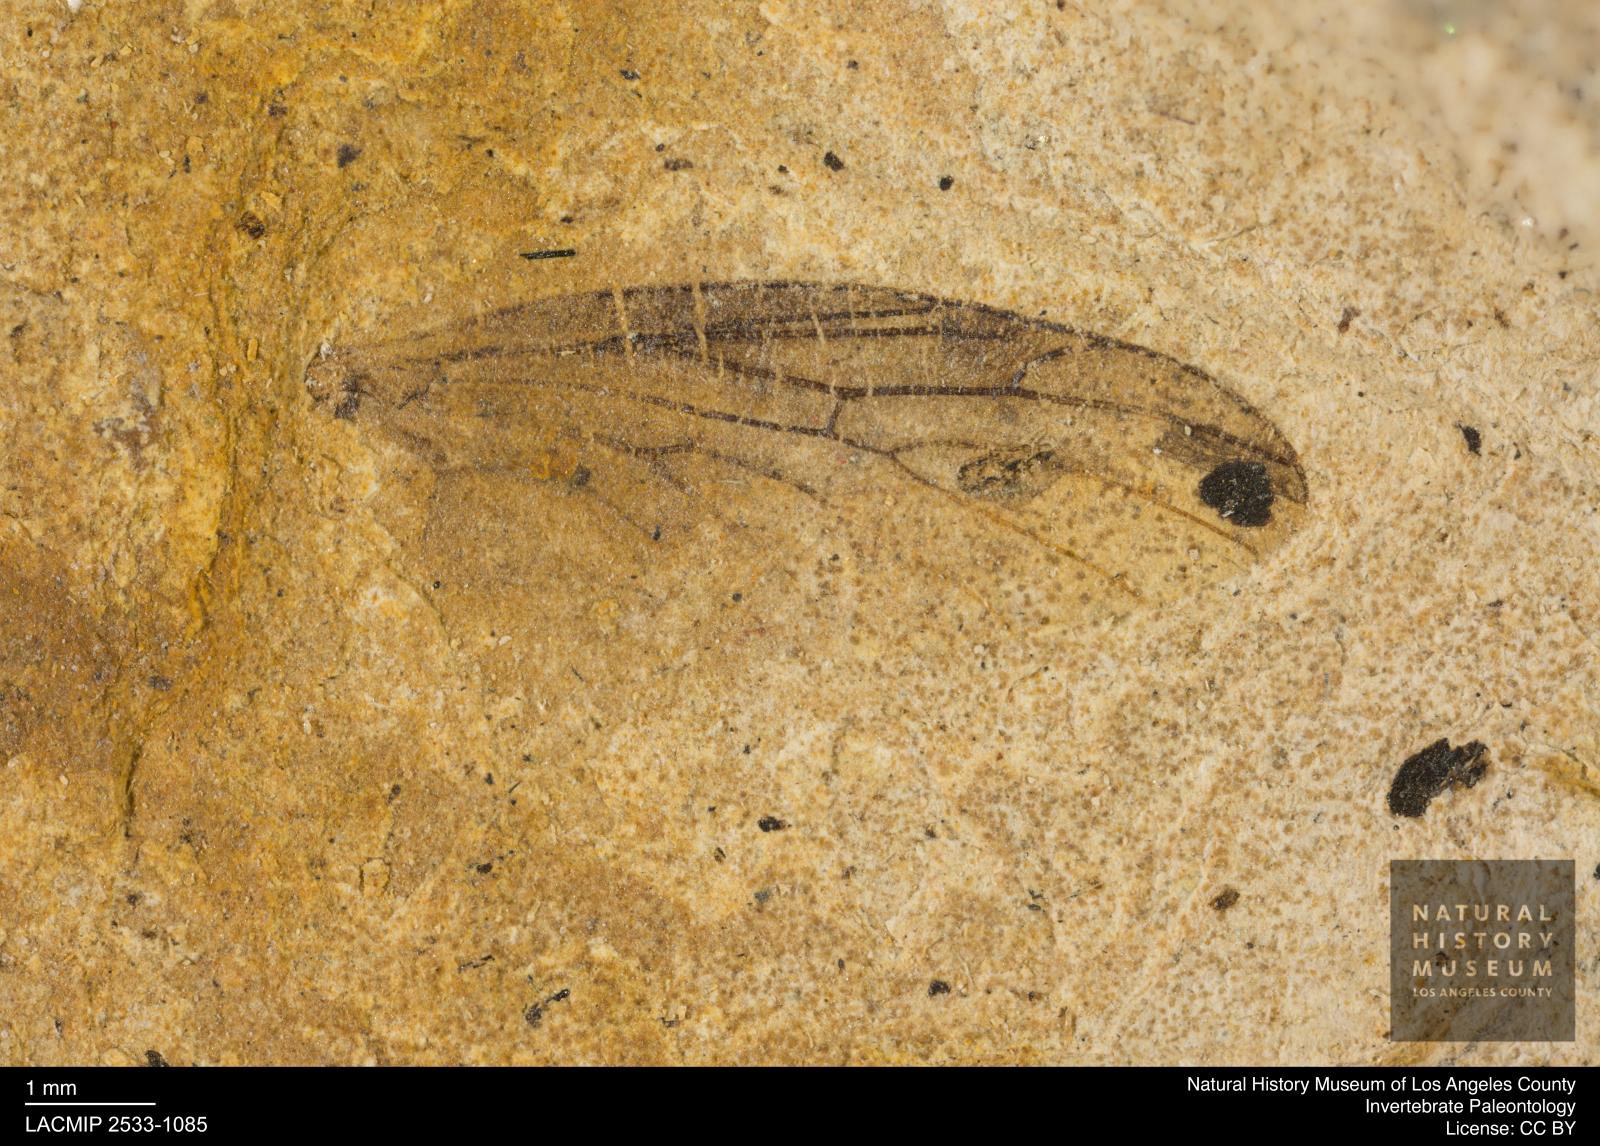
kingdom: Animalia
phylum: Arthropoda
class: Insecta
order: Diptera
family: Bibionidae
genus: Plecia
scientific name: Plecia grossa
